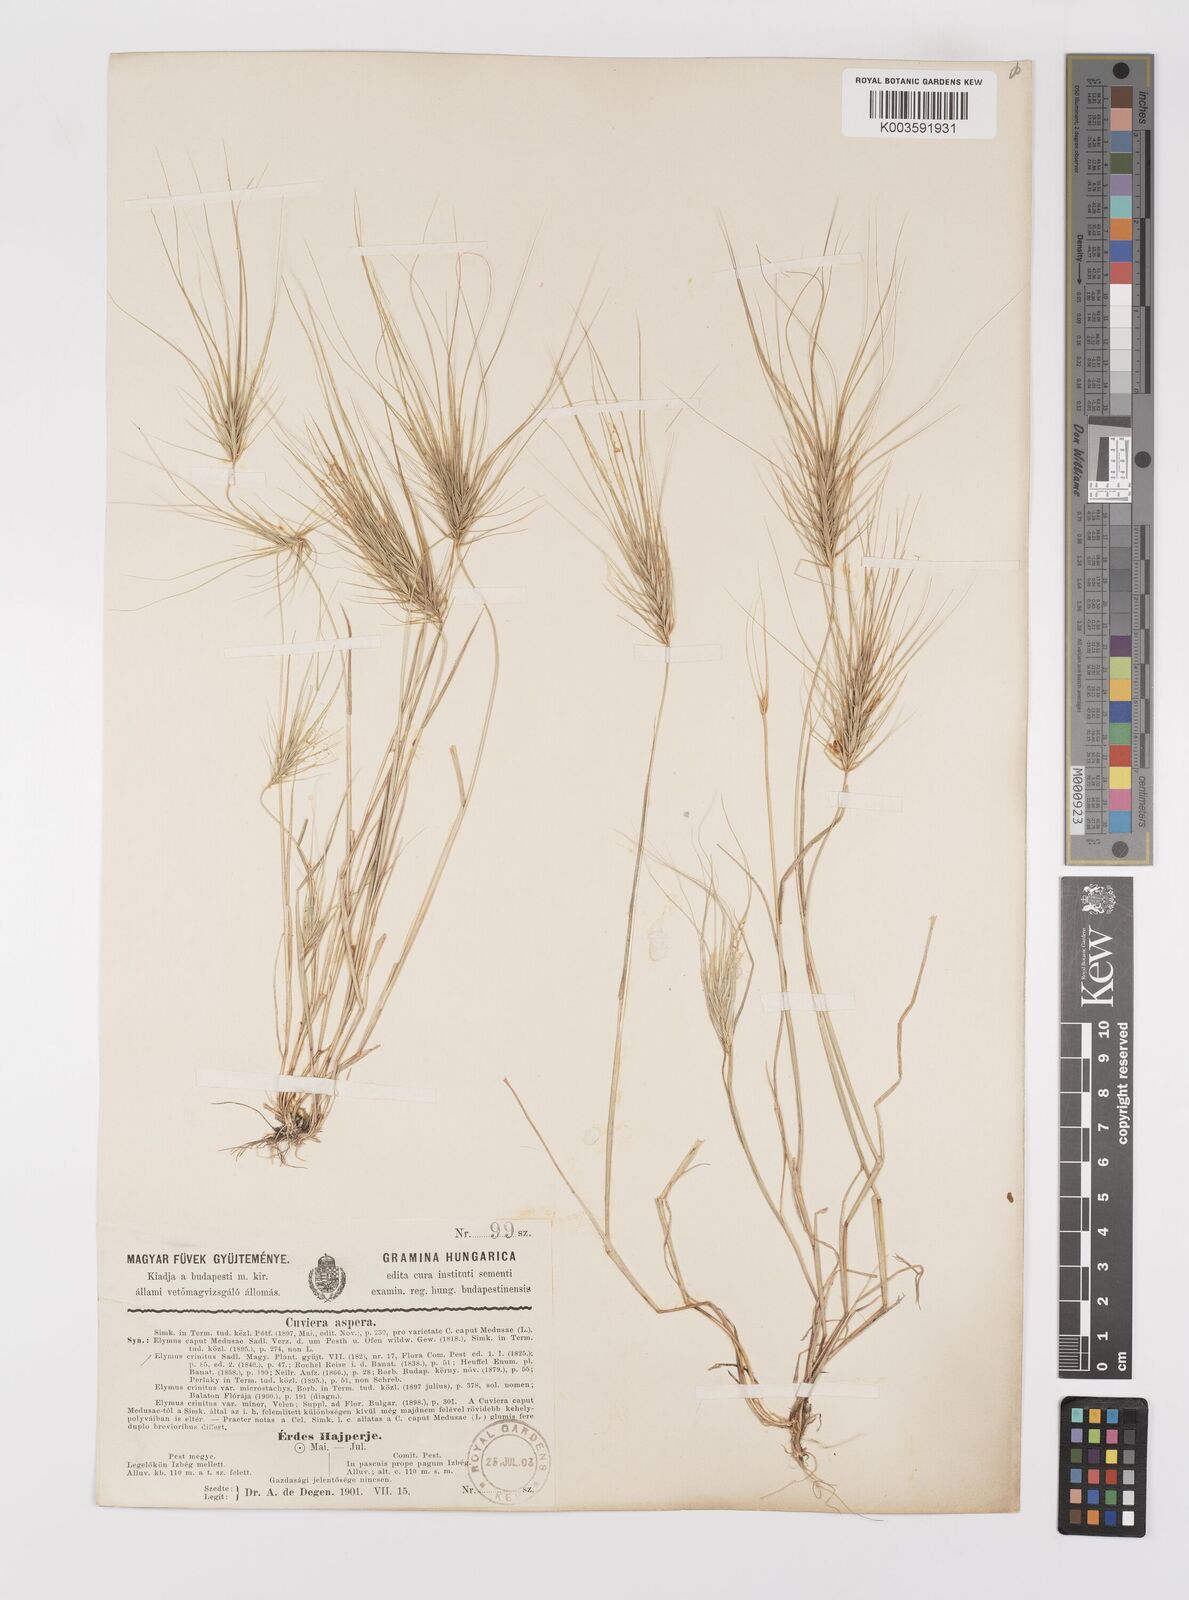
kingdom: Plantae
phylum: Tracheophyta
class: Liliopsida
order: Poales
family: Poaceae
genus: Taeniatherum
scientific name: Taeniatherum caput-medusae
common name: Medusahead
